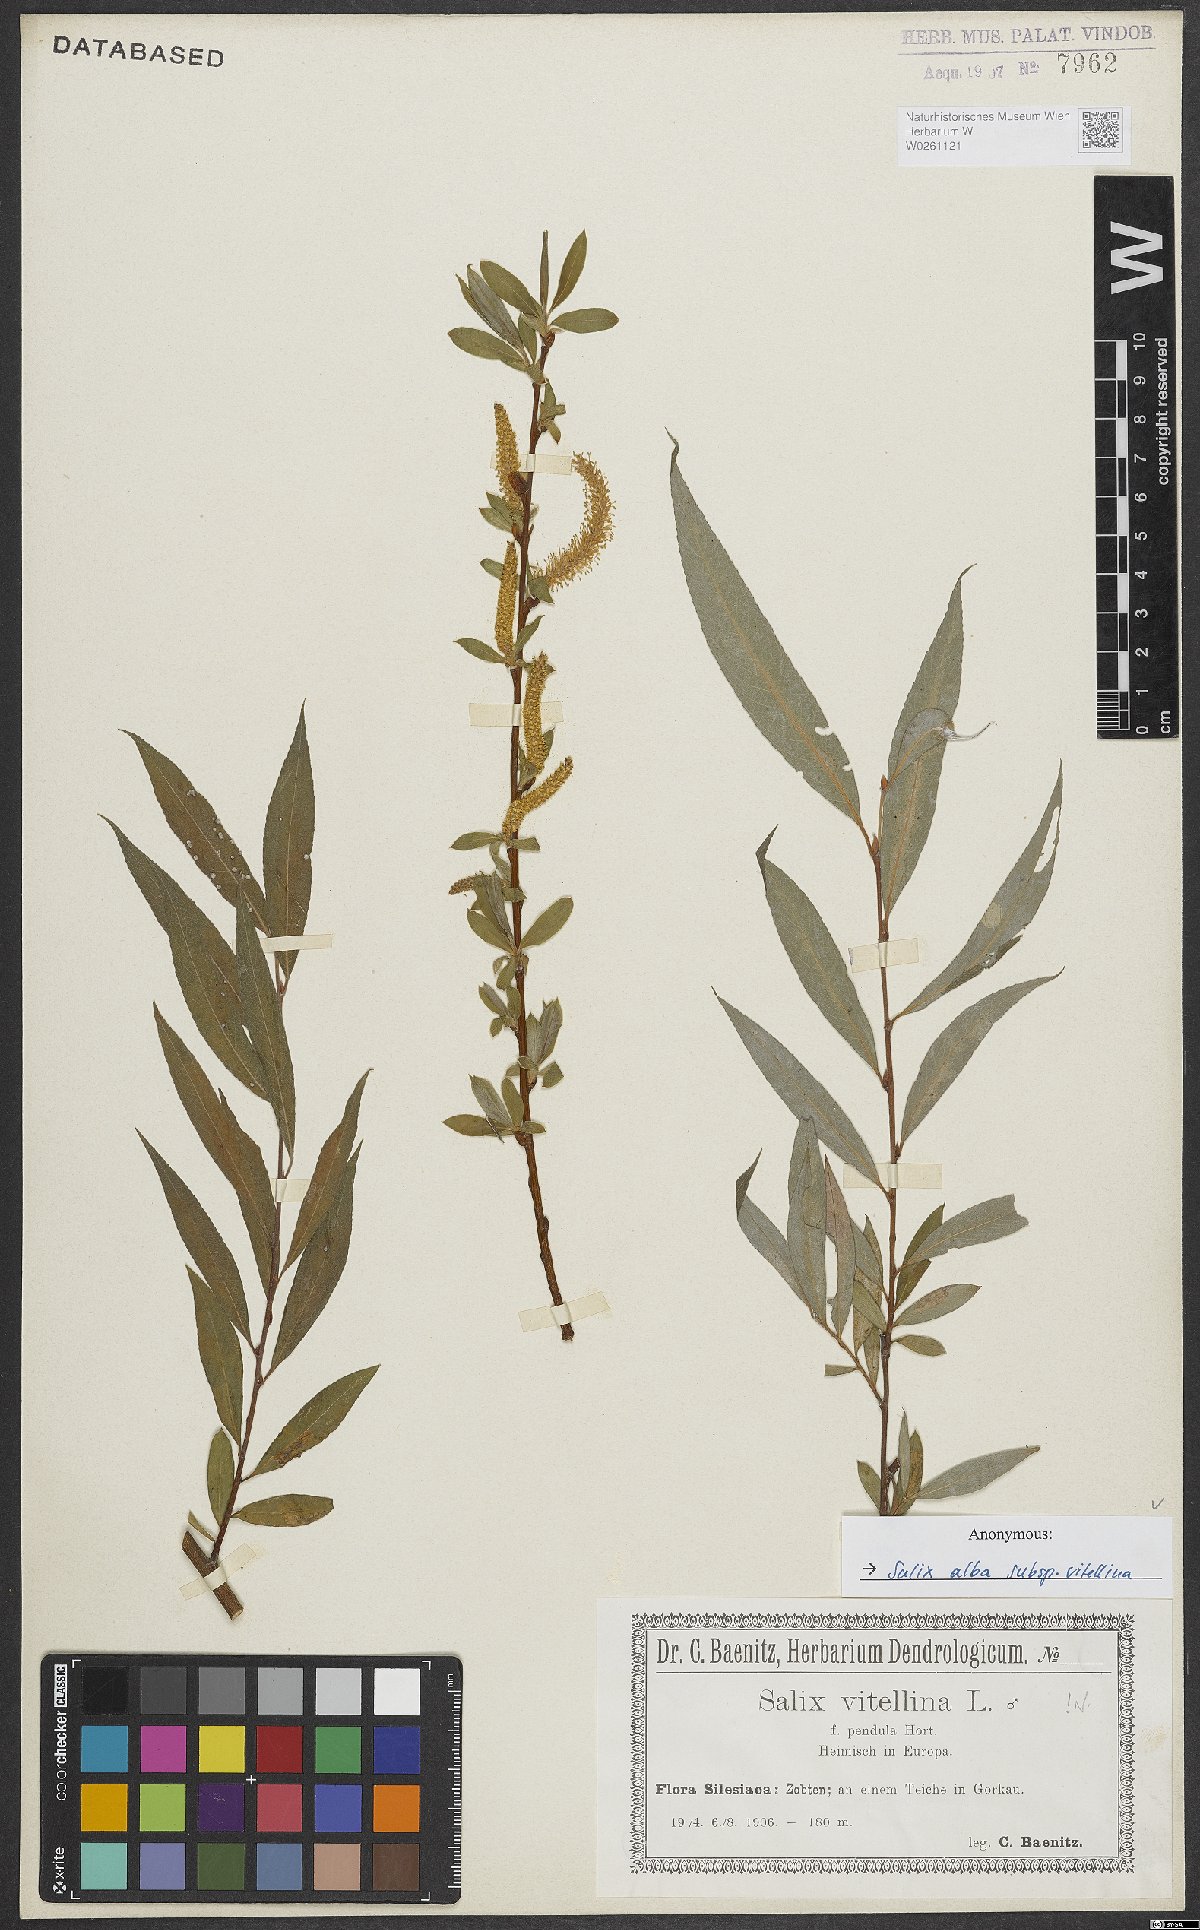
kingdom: Plantae
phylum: Tracheophyta
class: Magnoliopsida
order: Malpighiales
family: Salicaceae
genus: Salix
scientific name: Salix alba
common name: White willow
